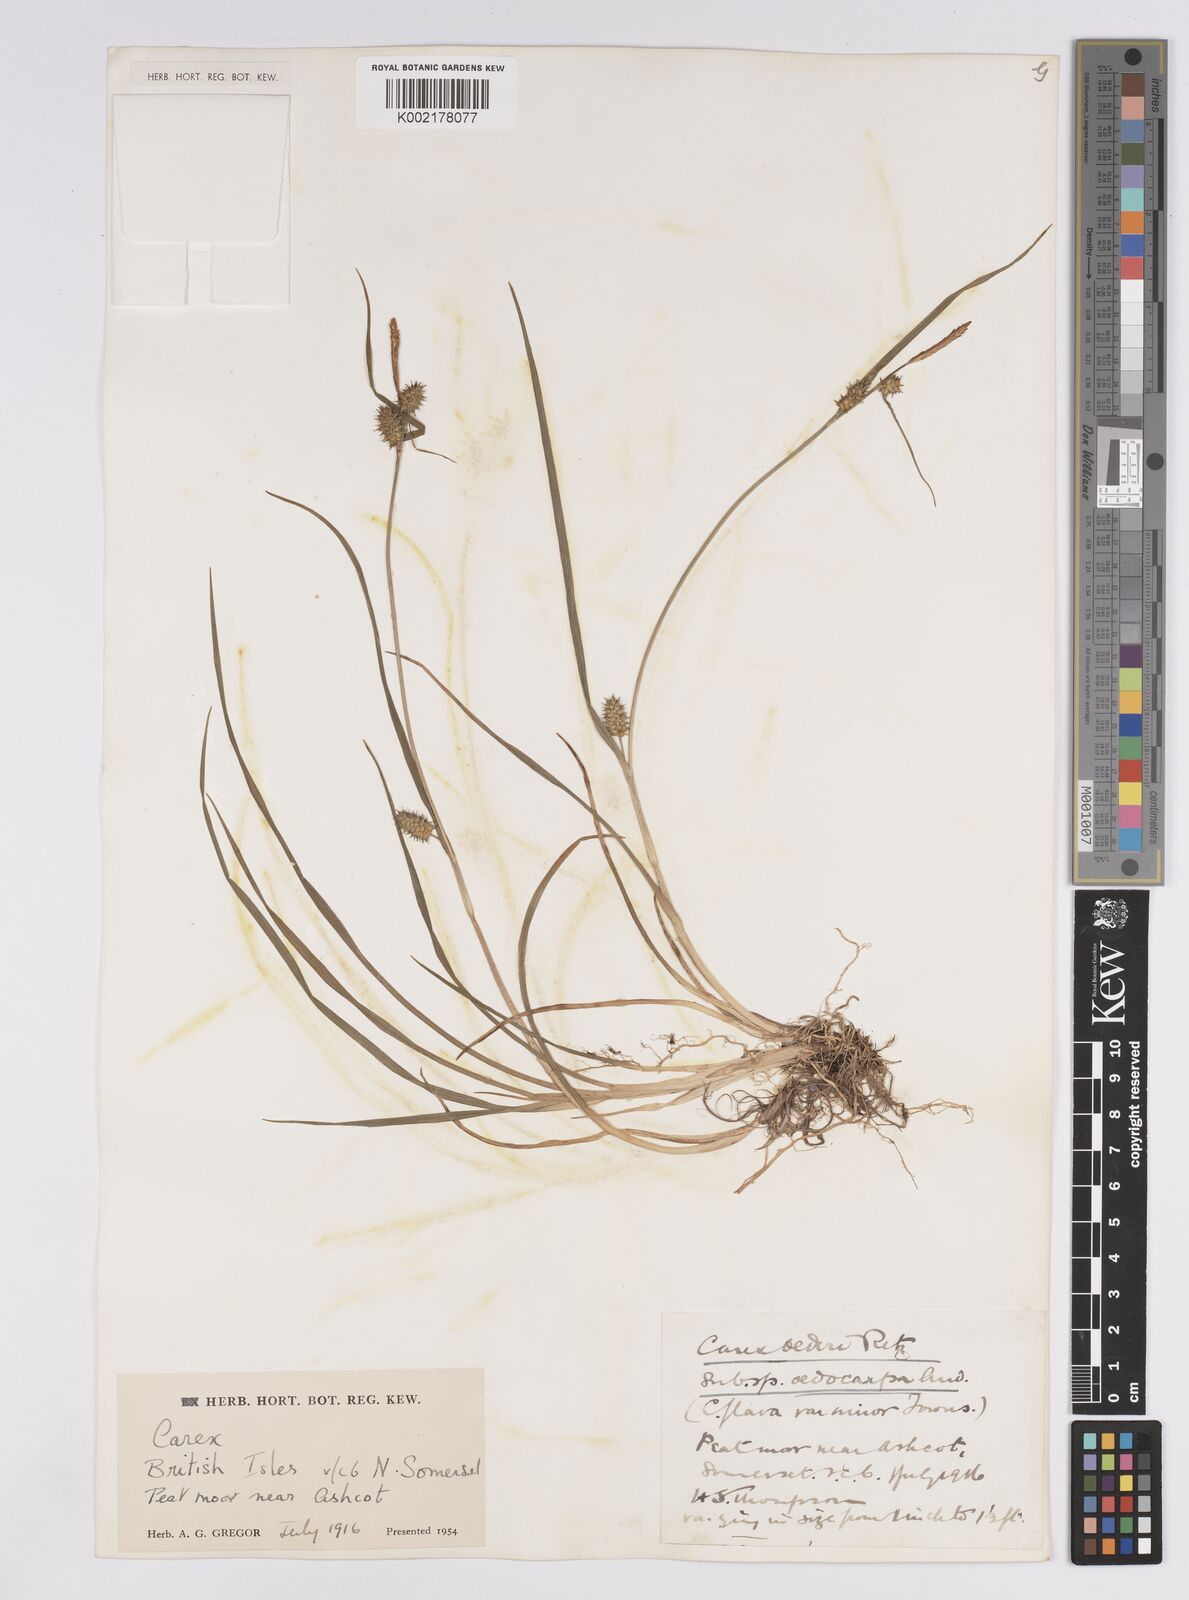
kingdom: Plantae
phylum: Tracheophyta
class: Liliopsida
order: Poales
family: Cyperaceae
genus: Carex
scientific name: Carex demissa
